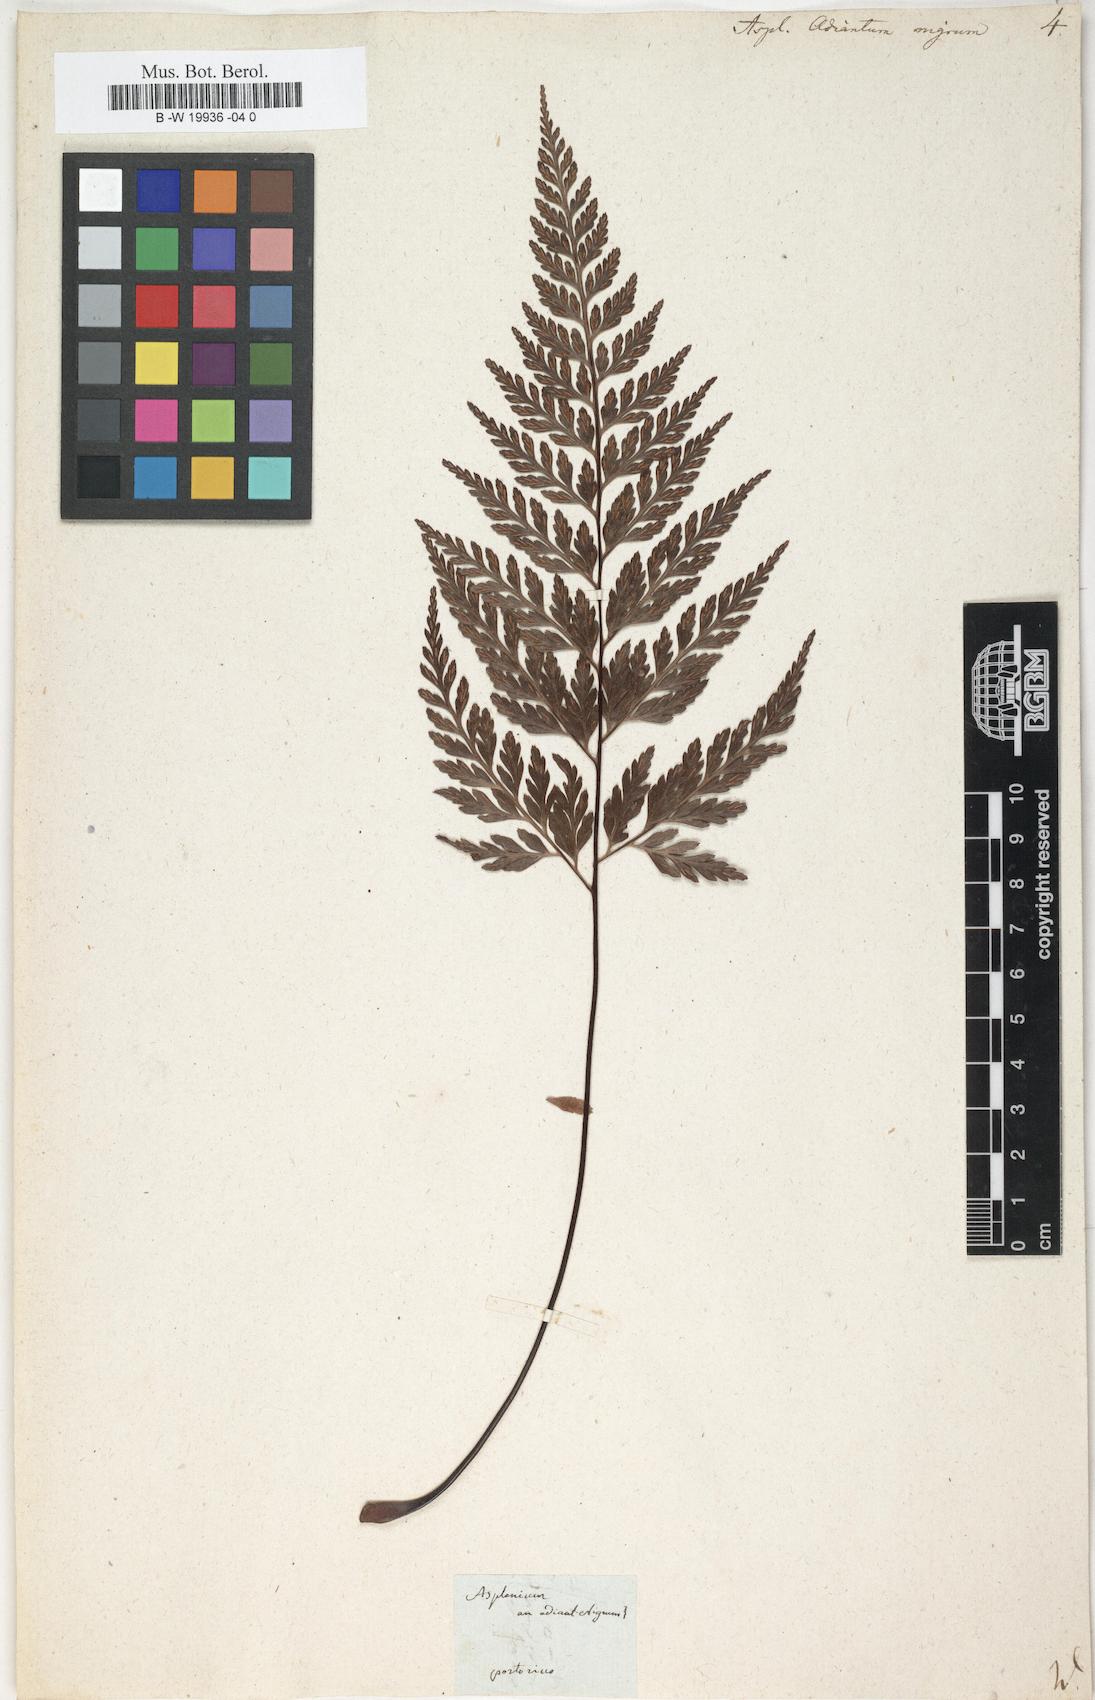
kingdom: Plantae
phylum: Tracheophyta
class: Polypodiopsida
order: Polypodiales
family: Aspleniaceae
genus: Asplenium
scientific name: Asplenium adiantum-nigrum
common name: Black spleenwort
